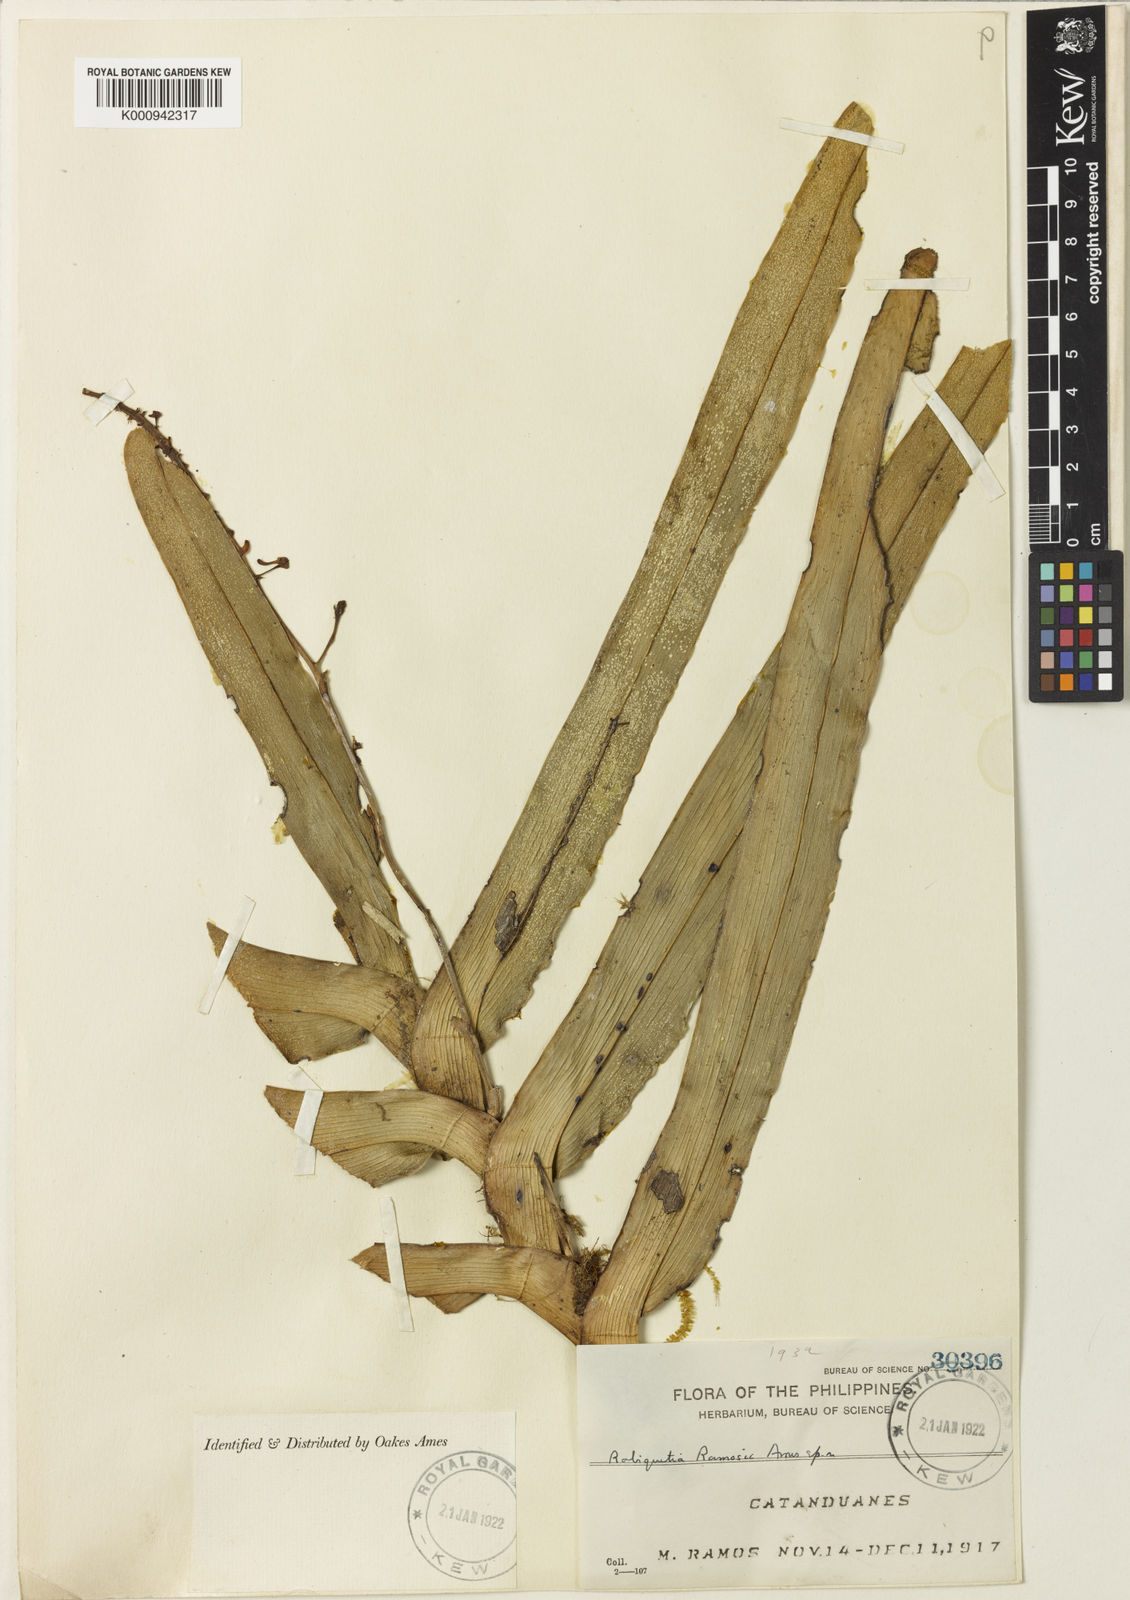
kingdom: Plantae
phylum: Tracheophyta
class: Liliopsida
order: Asparagales
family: Orchidaceae
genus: Robiquetia
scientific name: Robiquetia compressa
